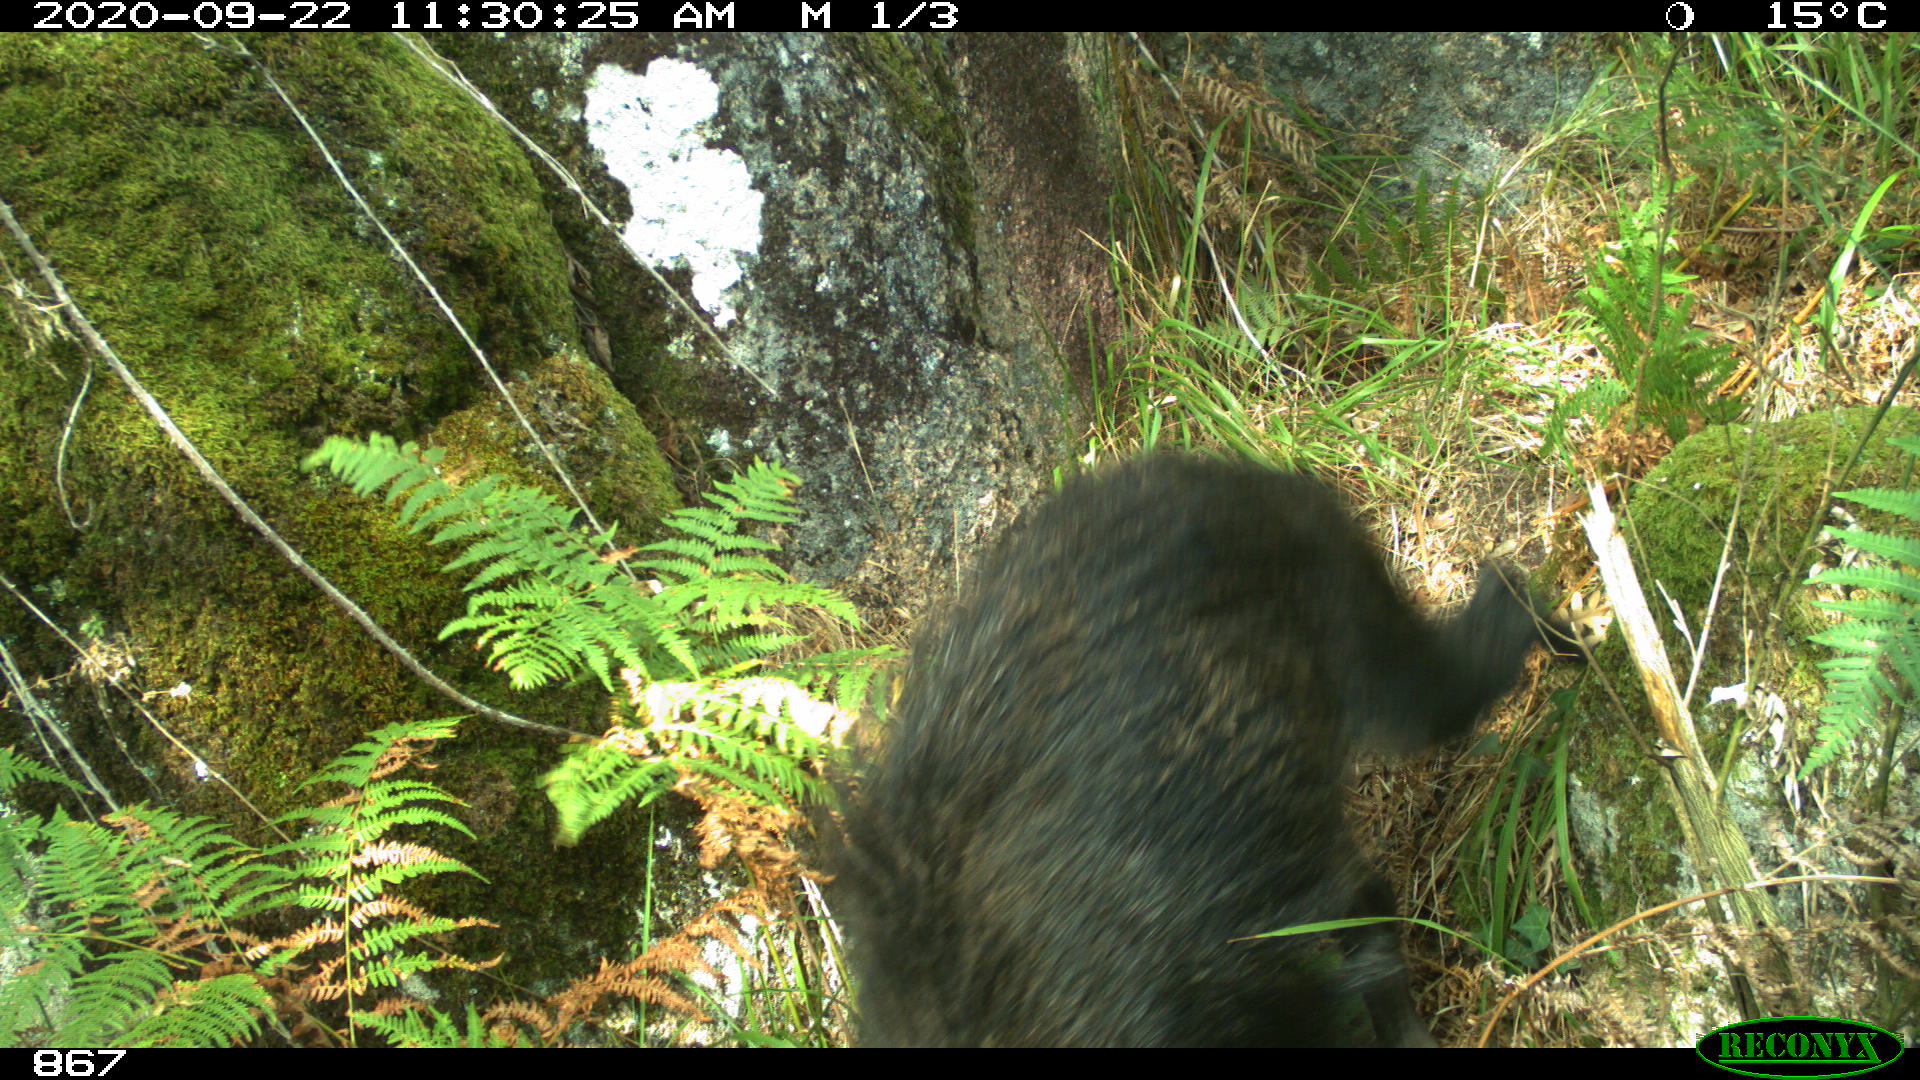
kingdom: Animalia
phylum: Chordata
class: Mammalia
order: Artiodactyla
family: Suidae
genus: Sus
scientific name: Sus scrofa
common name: Wild boar
